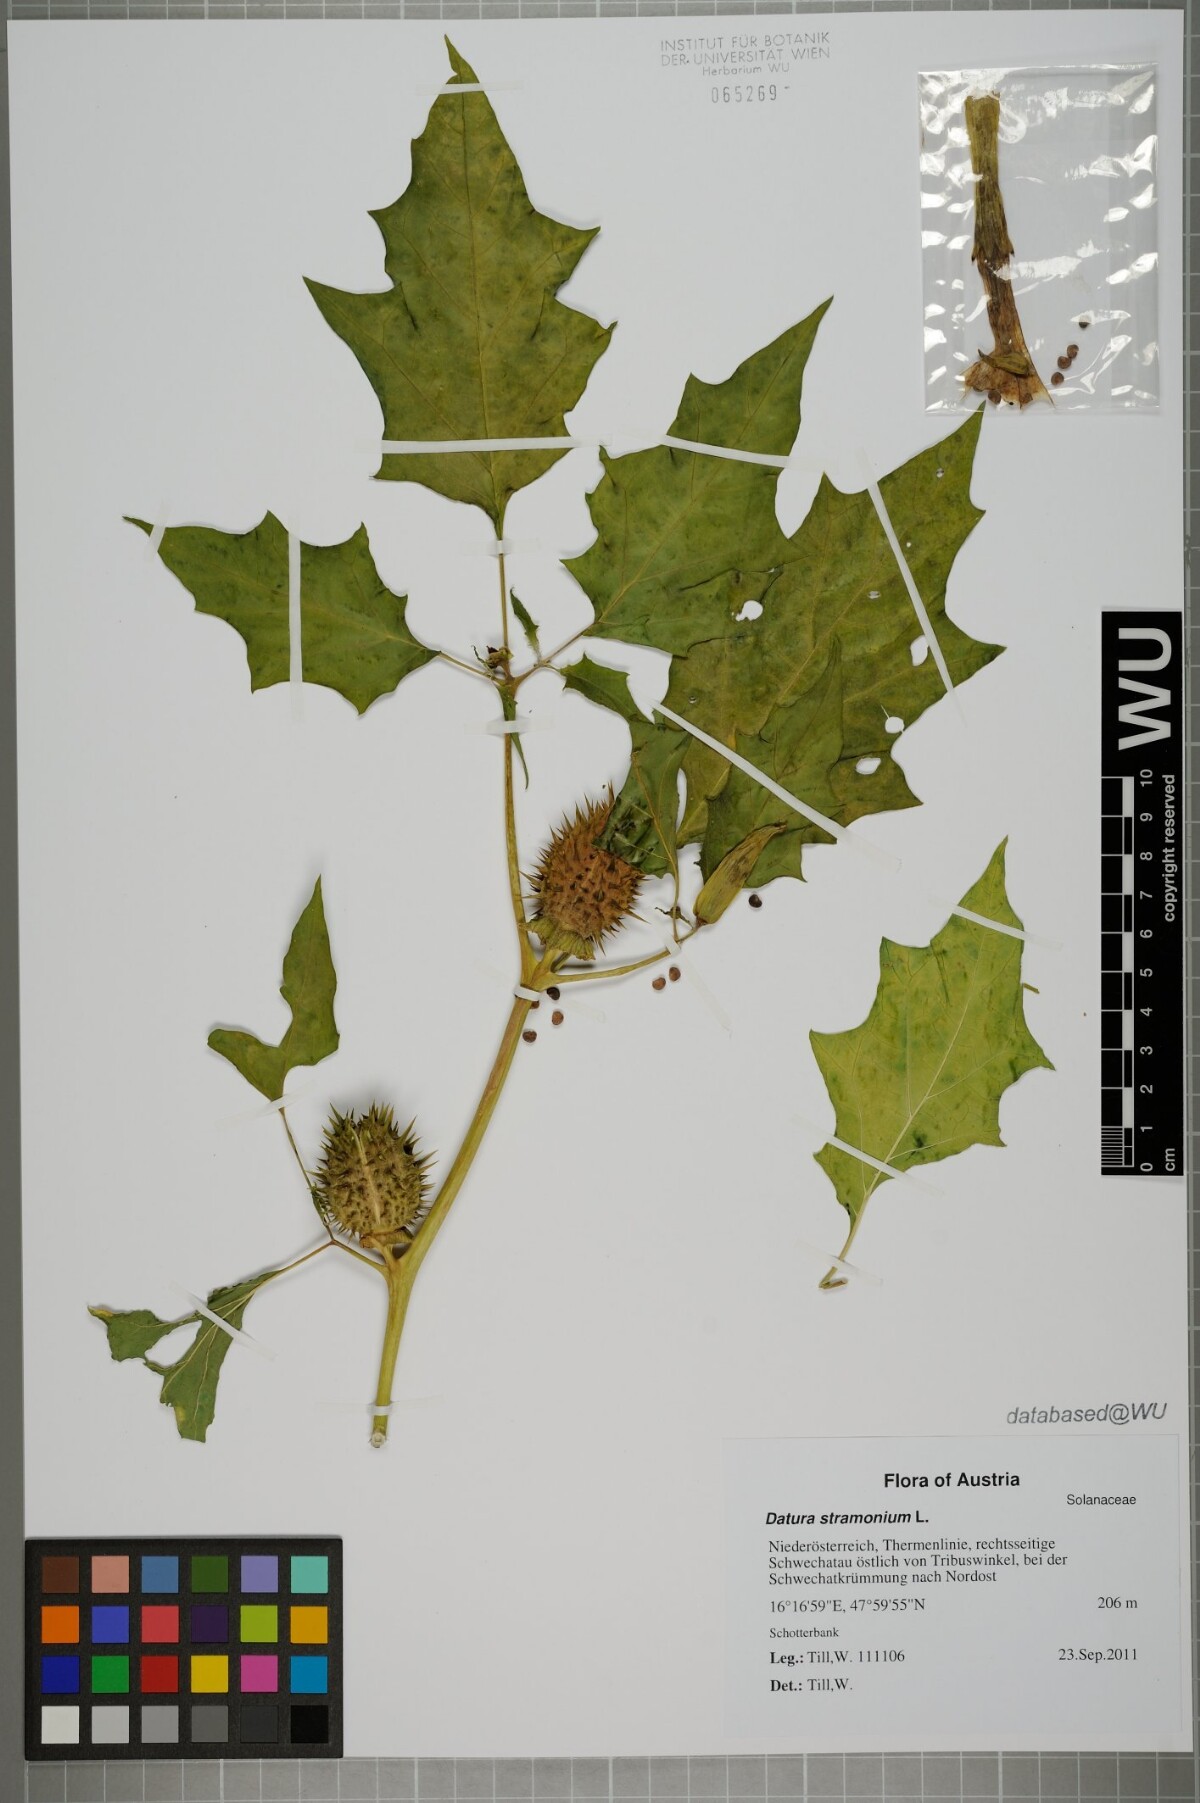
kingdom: Plantae
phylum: Tracheophyta
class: Magnoliopsida
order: Solanales
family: Solanaceae
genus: Datura
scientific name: Datura stramonium
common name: Thorn-apple
